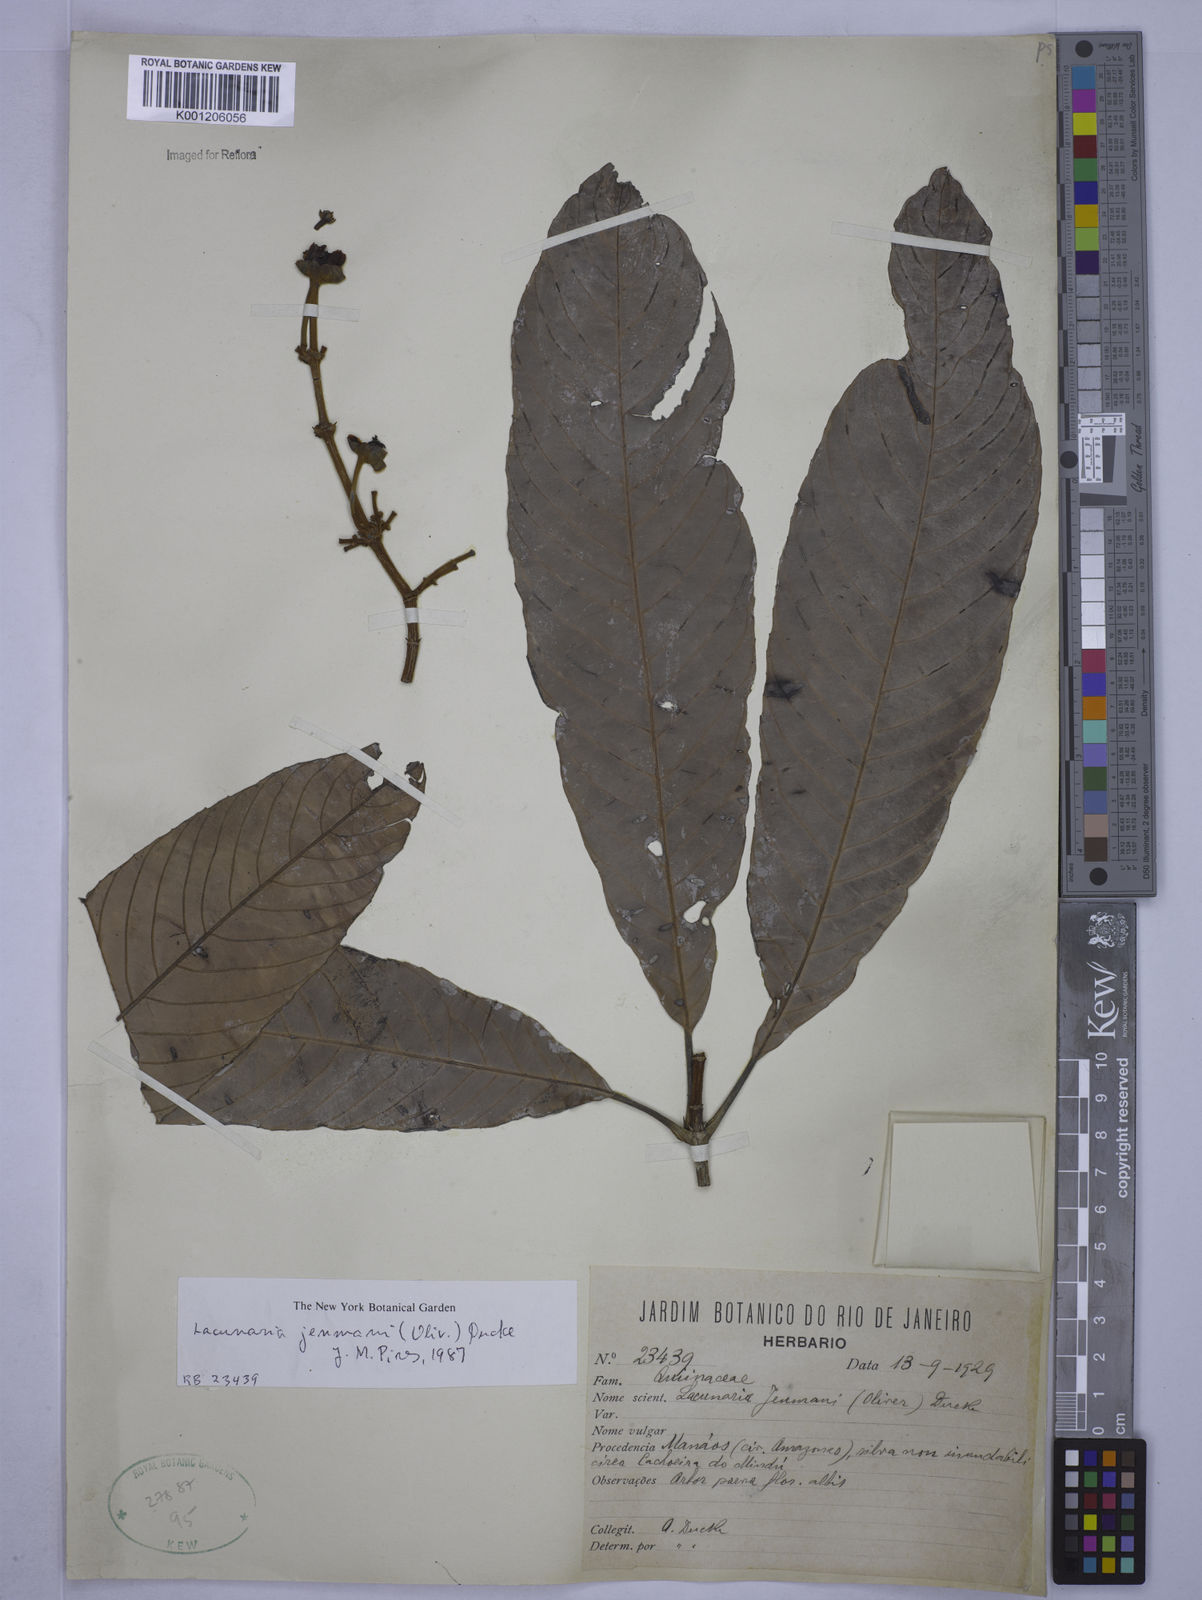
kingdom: Plantae
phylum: Tracheophyta
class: Magnoliopsida
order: Malpighiales
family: Quiinaceae
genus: Lacunaria
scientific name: Lacunaria jenmanii
